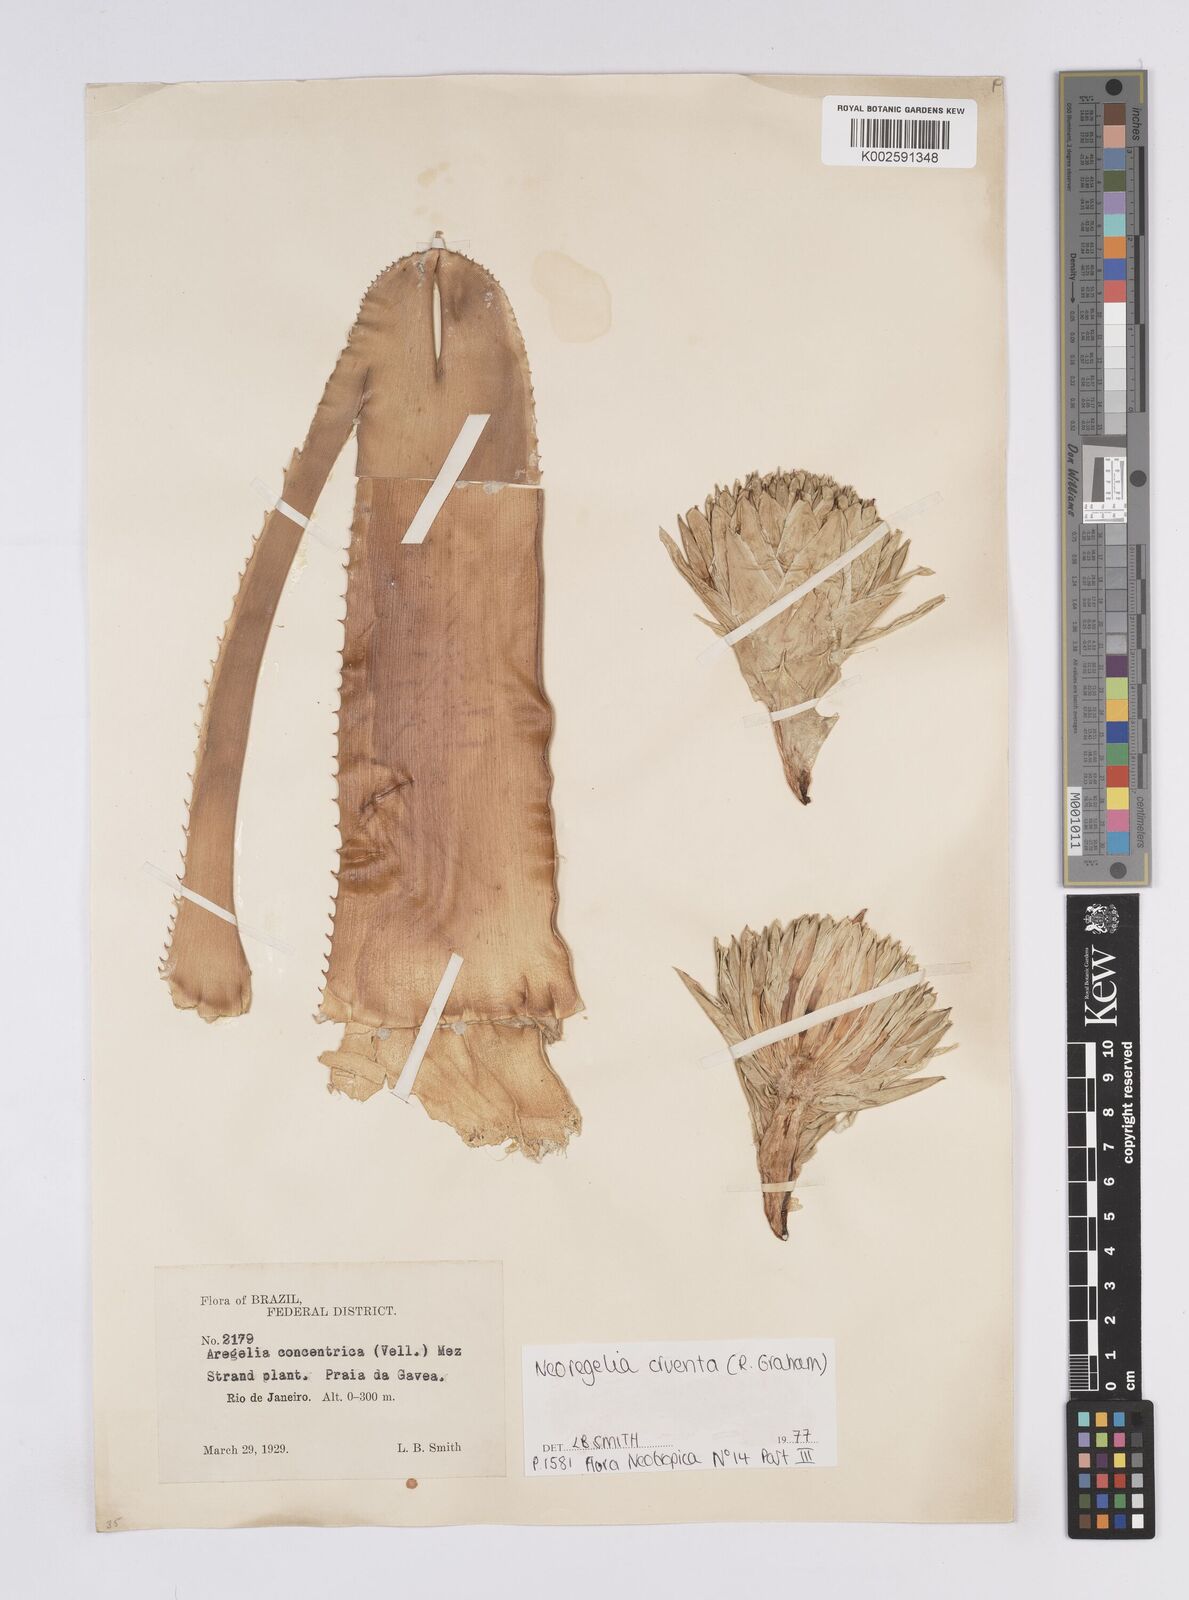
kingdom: Plantae
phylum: Tracheophyta
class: Liliopsida
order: Poales
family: Bromeliaceae
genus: Neoregelia
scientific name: Neoregelia cruenta
